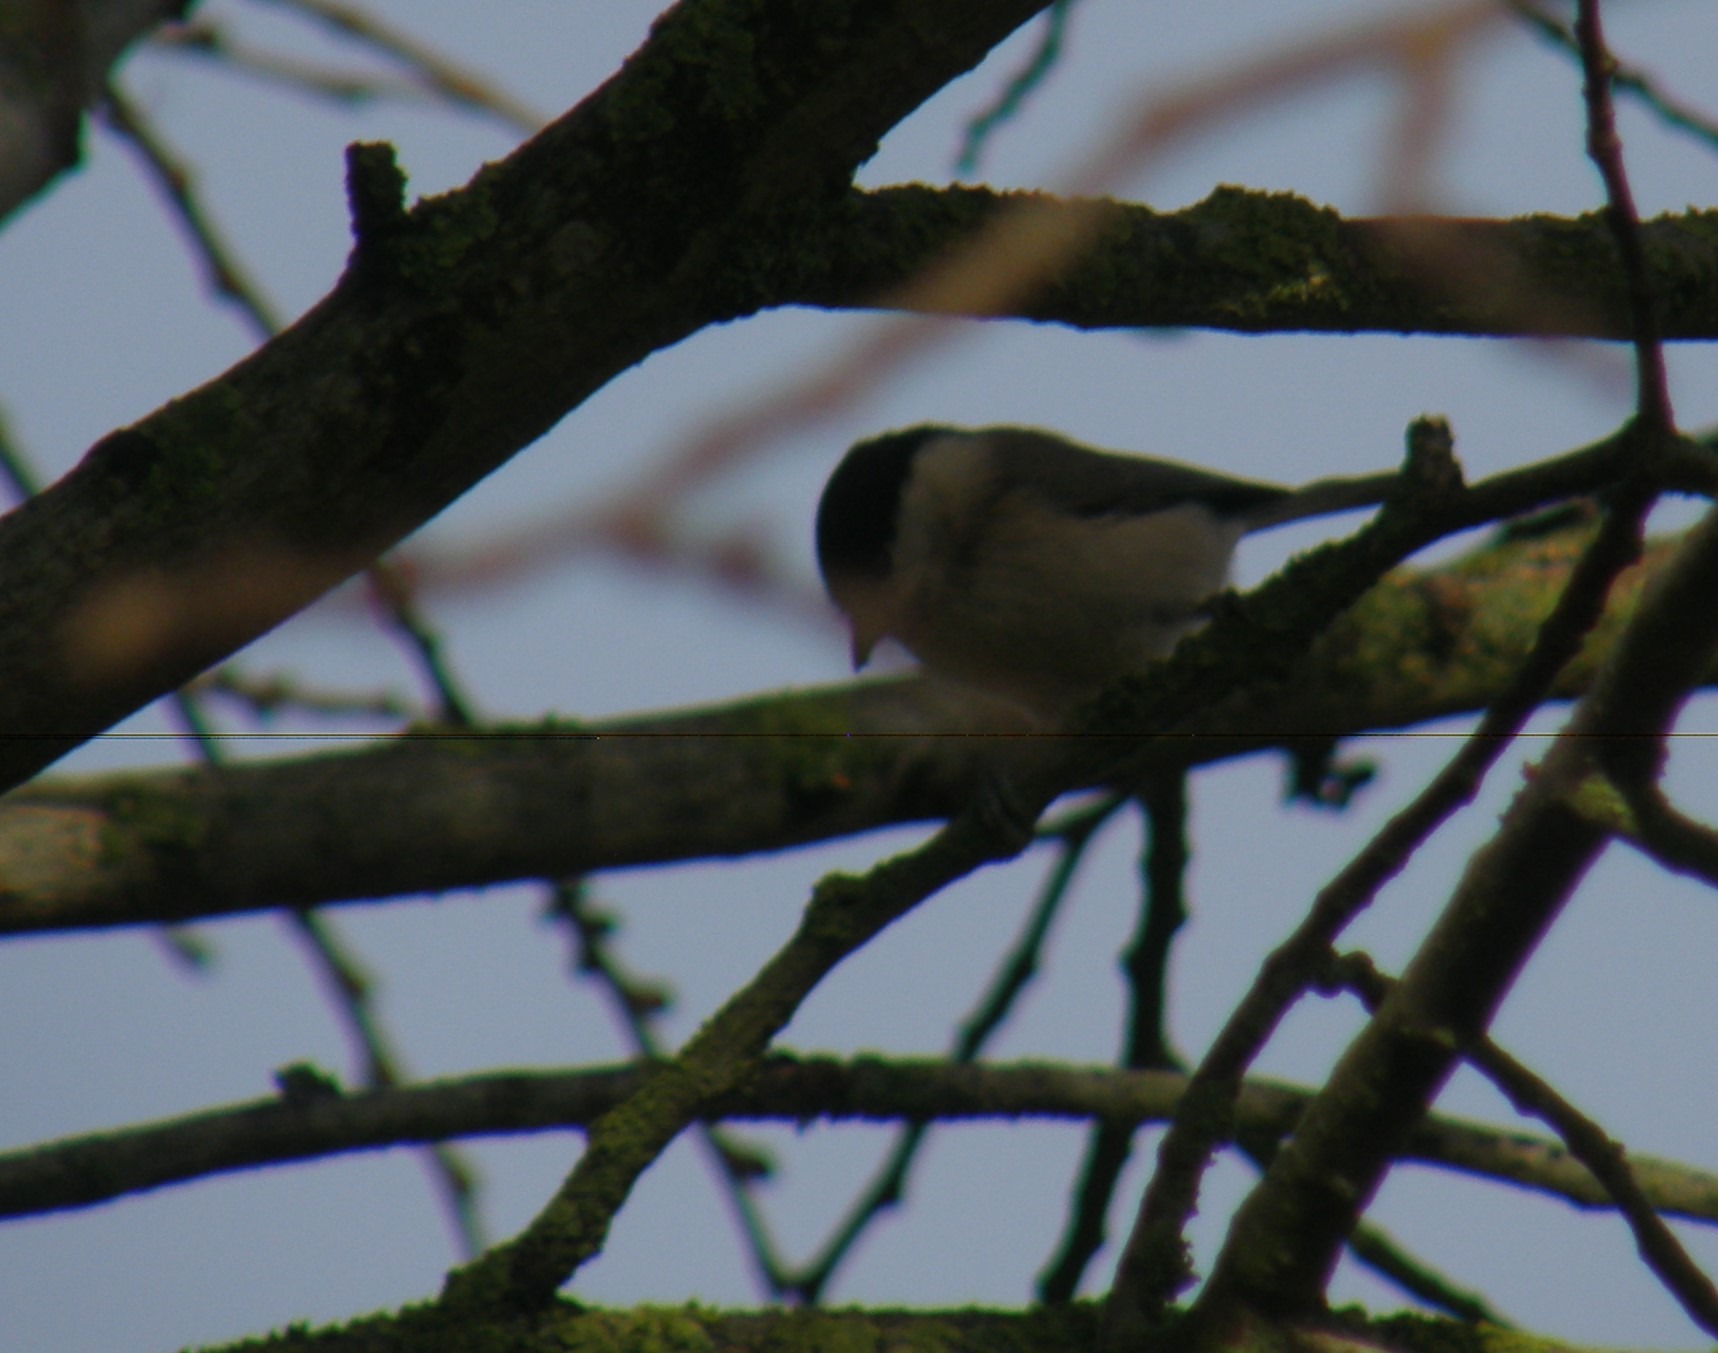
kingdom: Animalia
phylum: Chordata
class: Aves
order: Passeriformes
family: Paridae
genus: Poecile
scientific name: Poecile palustris
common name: Sumpmejse
